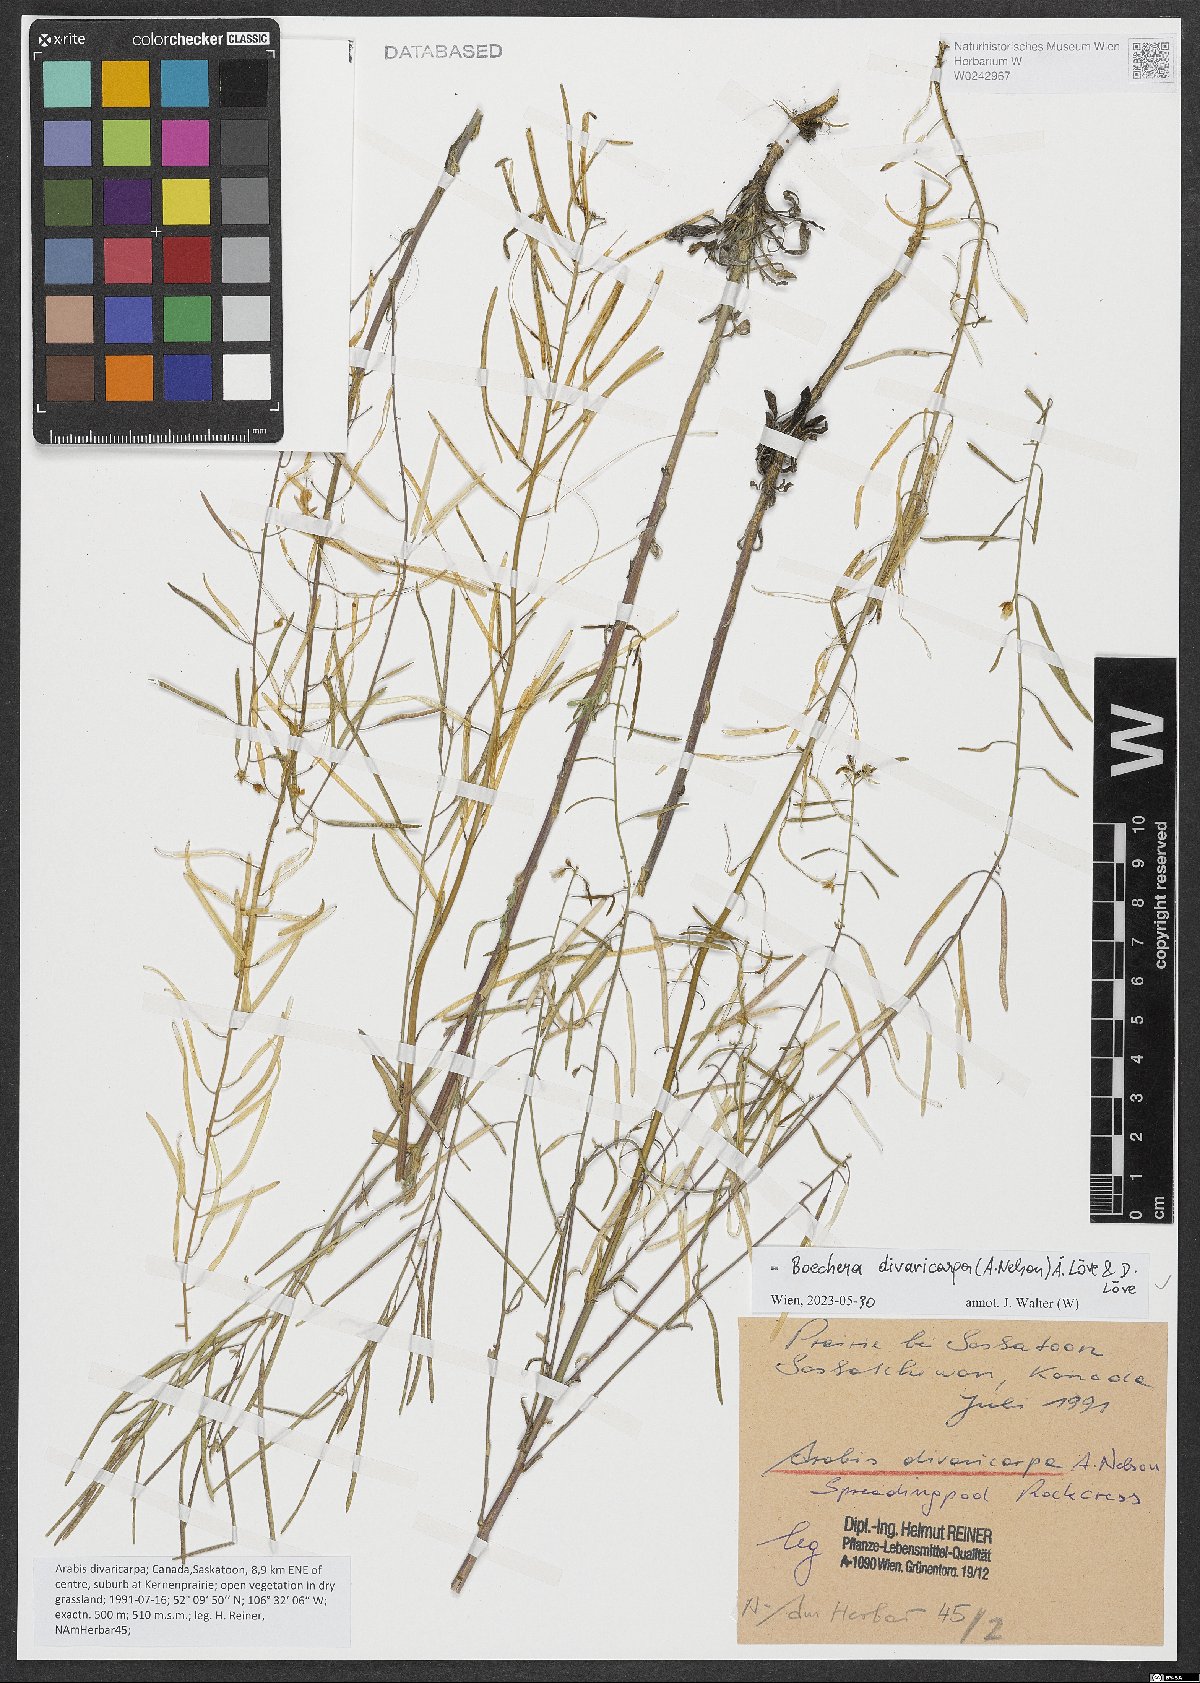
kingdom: Plantae
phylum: Tracheophyta
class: Magnoliopsida
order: Brassicales
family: Brassicaceae
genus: Boechera
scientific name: Boechera divaricarpa
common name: Divaricate rockcress
